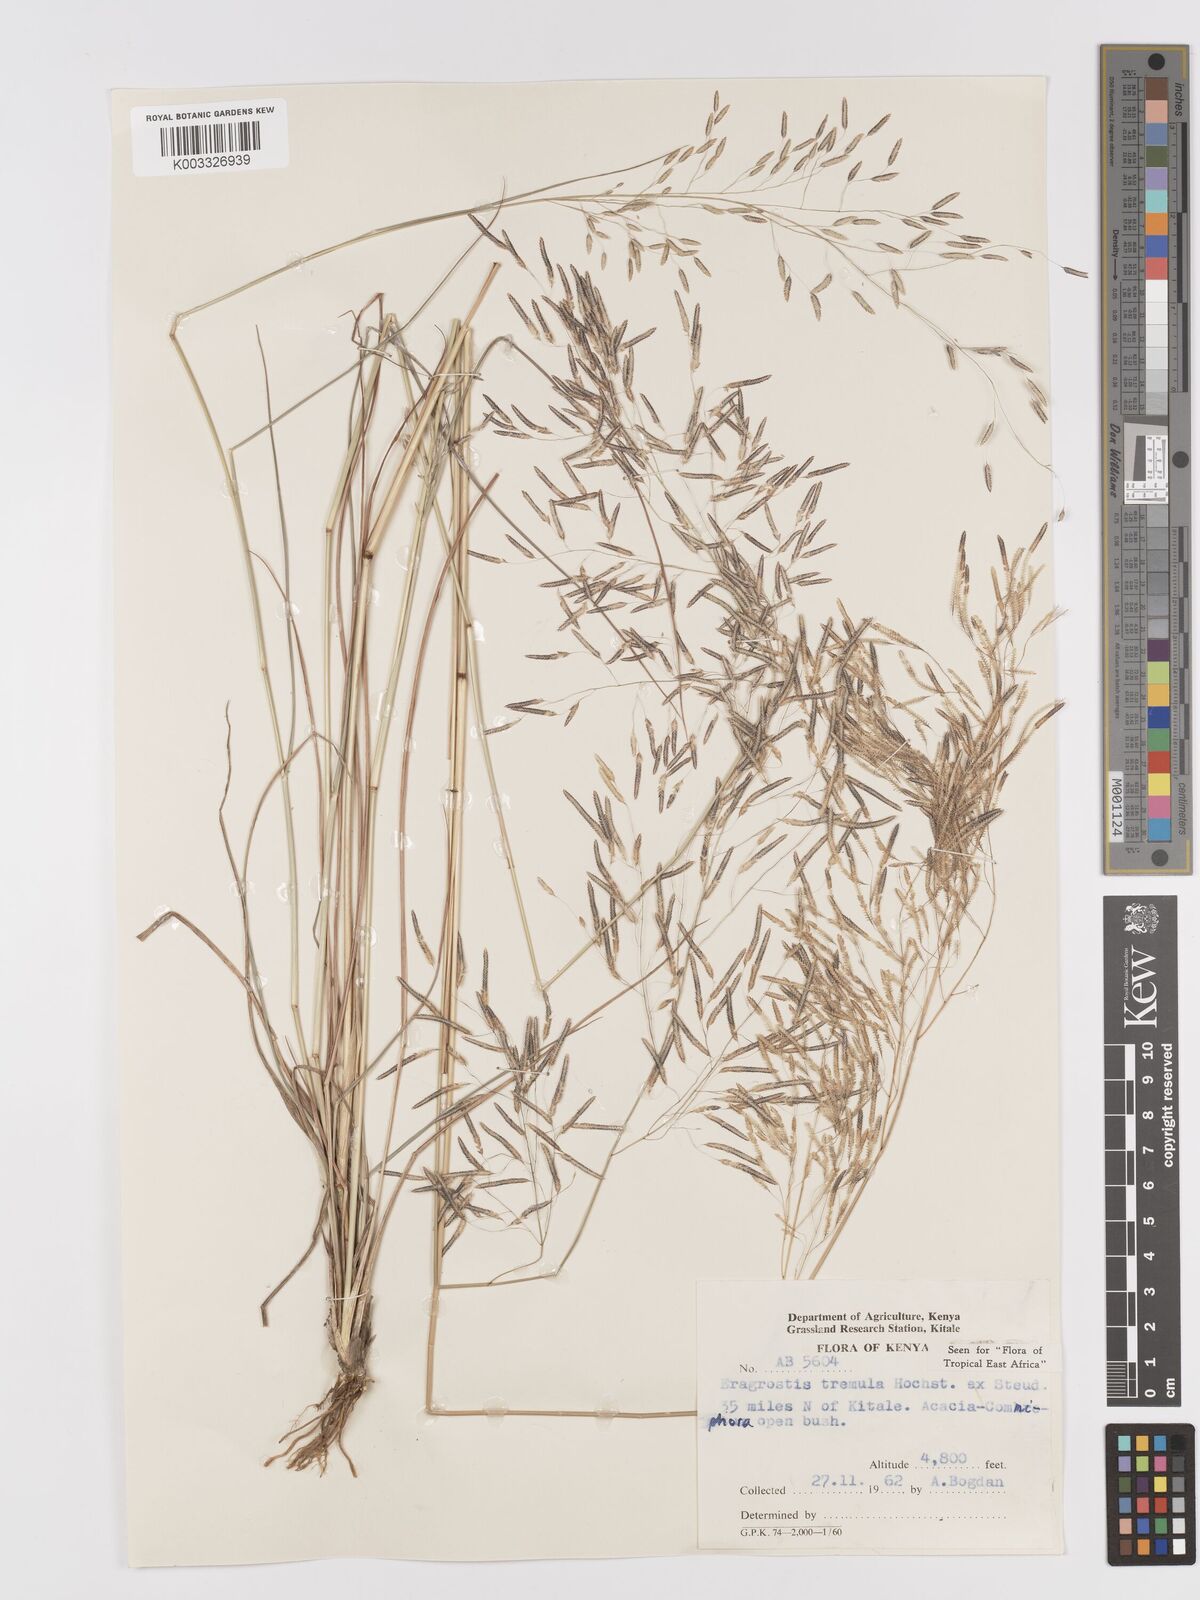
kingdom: Plantae
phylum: Tracheophyta
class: Liliopsida
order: Poales
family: Poaceae
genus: Eragrostis
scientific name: Eragrostis tremula
